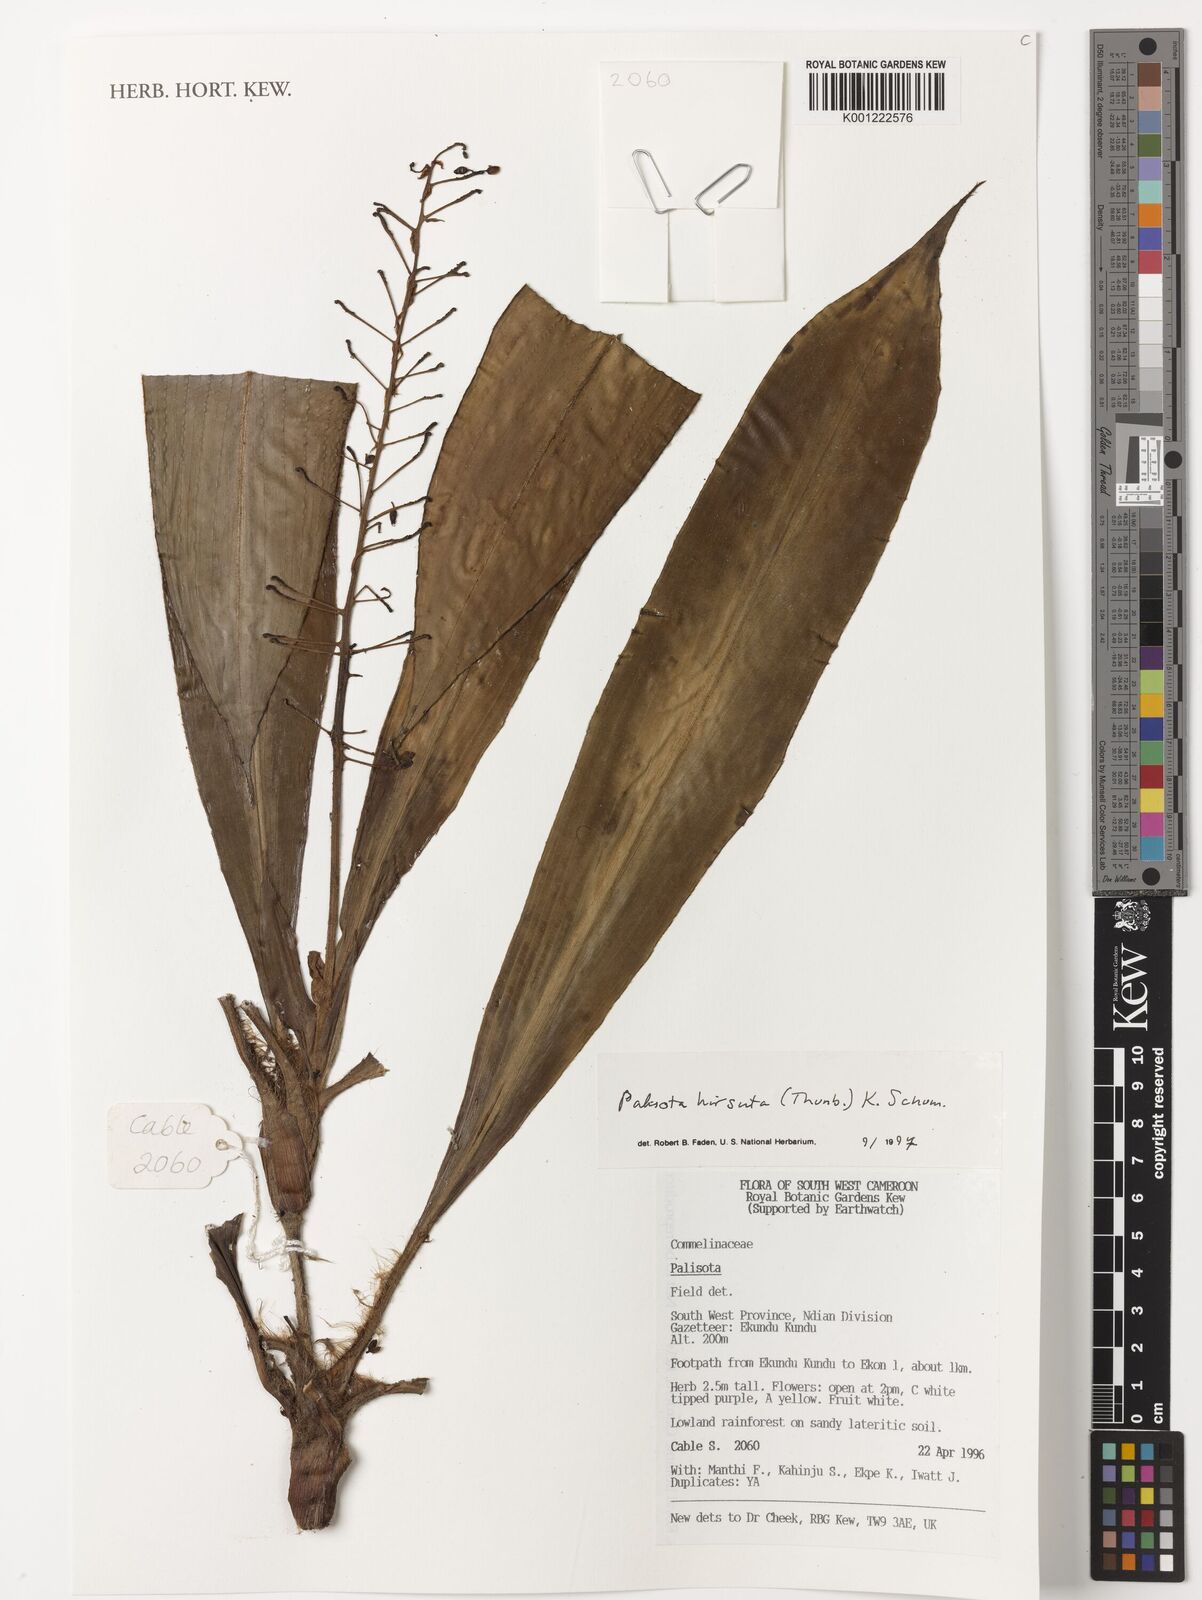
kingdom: Plantae
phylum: Tracheophyta
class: Liliopsida
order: Commelinales
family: Commelinaceae
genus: Palisota
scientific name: Palisota hirsuta
